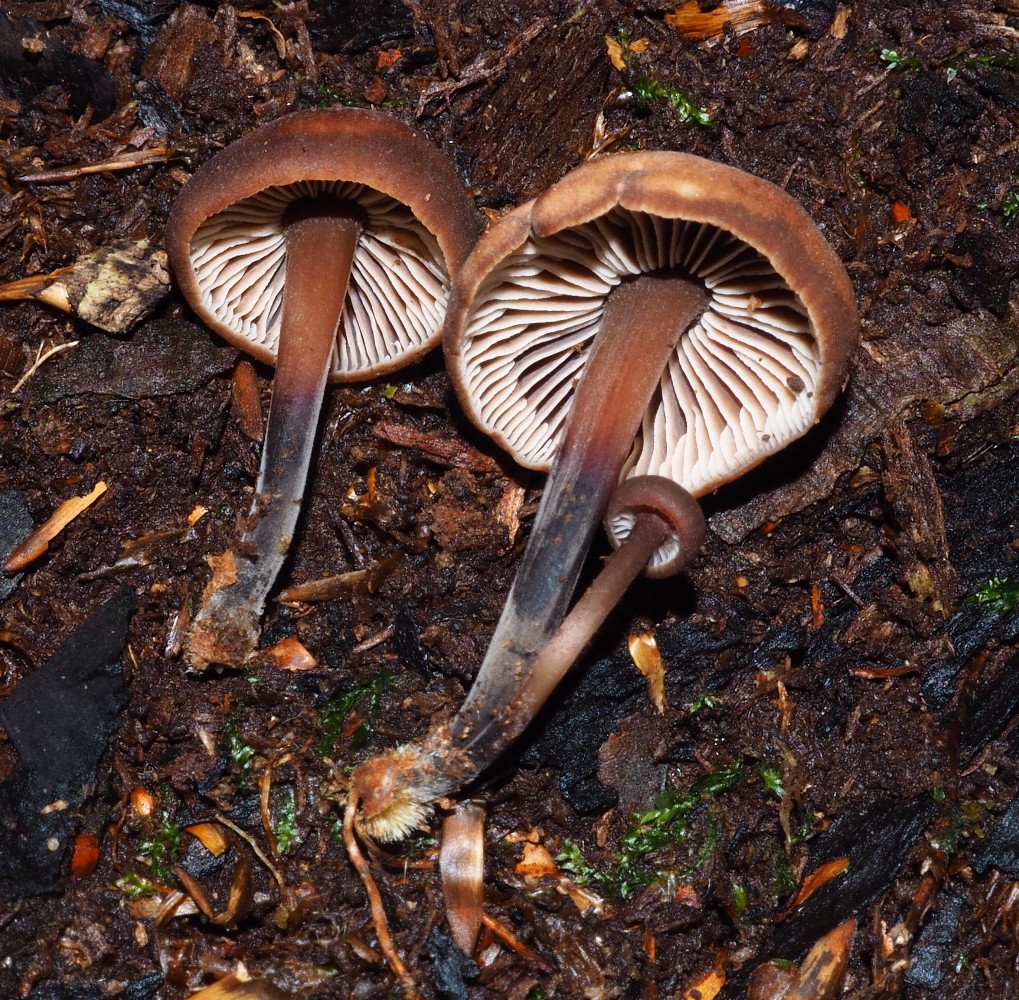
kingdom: Fungi
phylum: Basidiomycota
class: Agaricomycetes
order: Agaricales
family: Omphalotaceae
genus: Gymnopus
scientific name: Gymnopus foetidus
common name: stinkende fladhat
